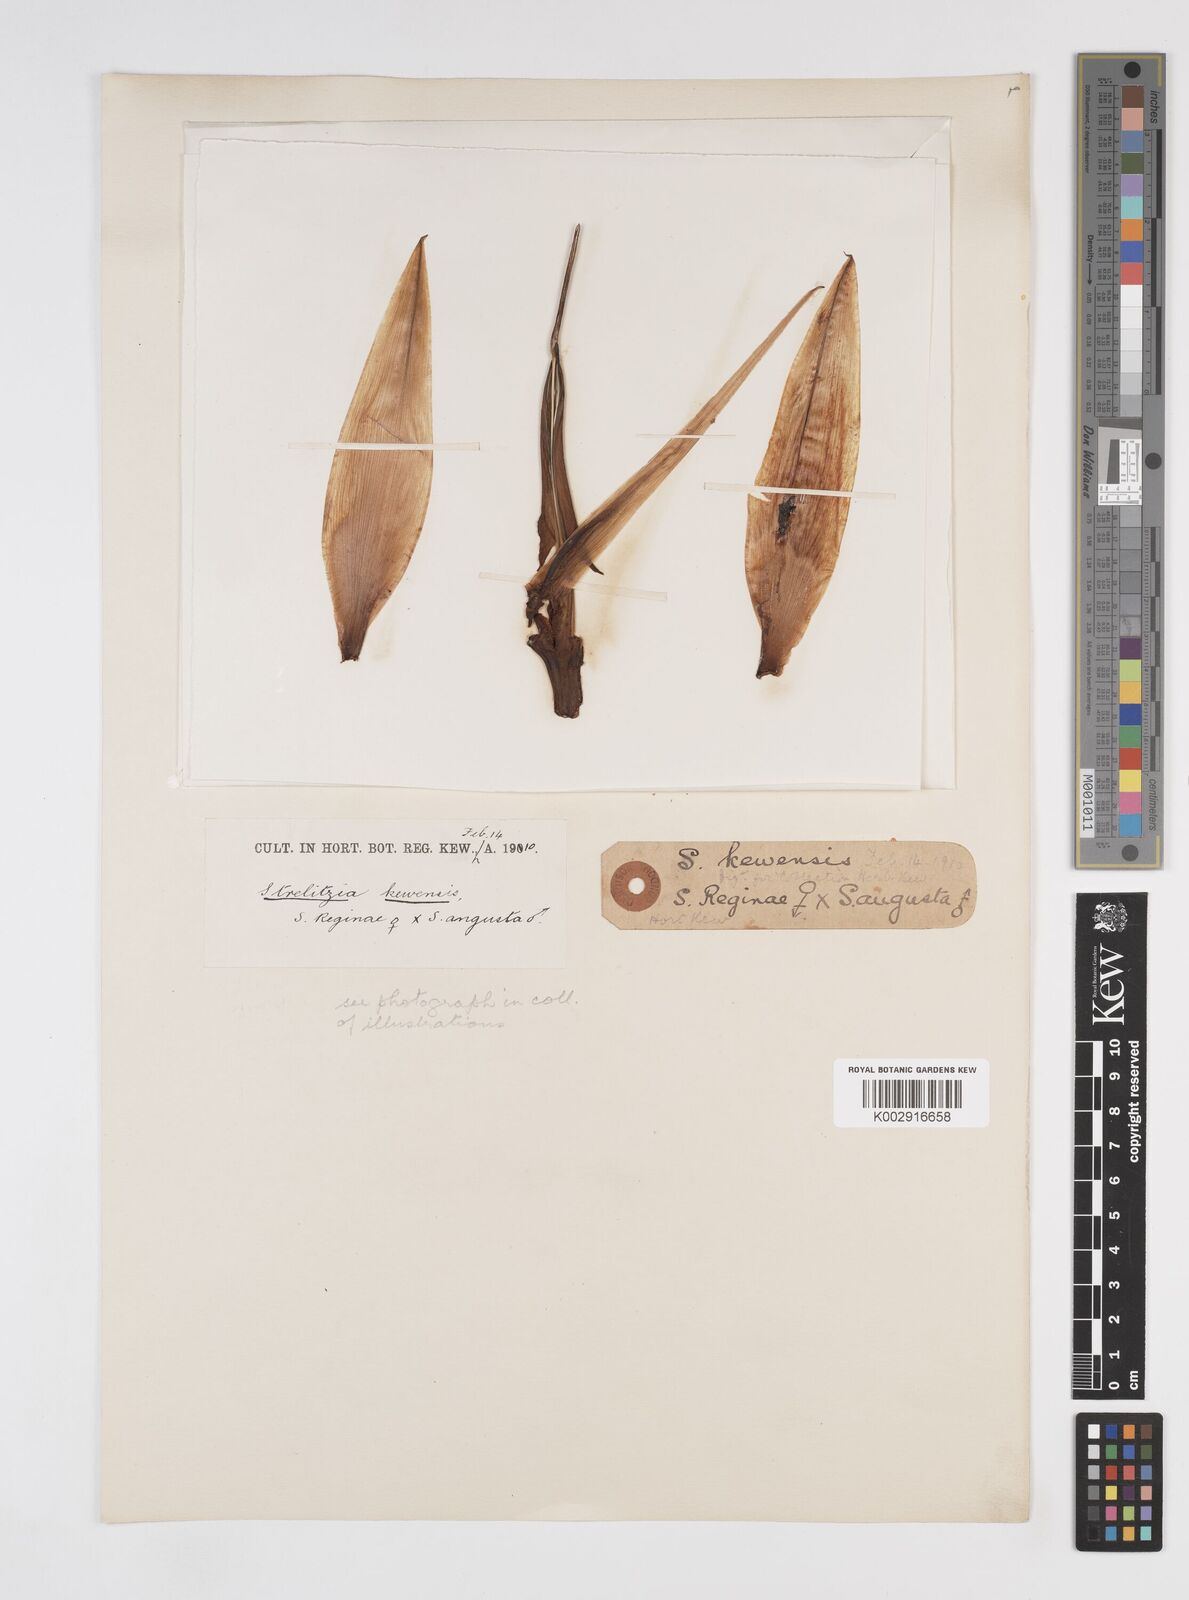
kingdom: Plantae
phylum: Tracheophyta
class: Liliopsida
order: Zingiberales
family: Strelitziaceae
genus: Strelitzia
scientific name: Strelitzia kewensis
